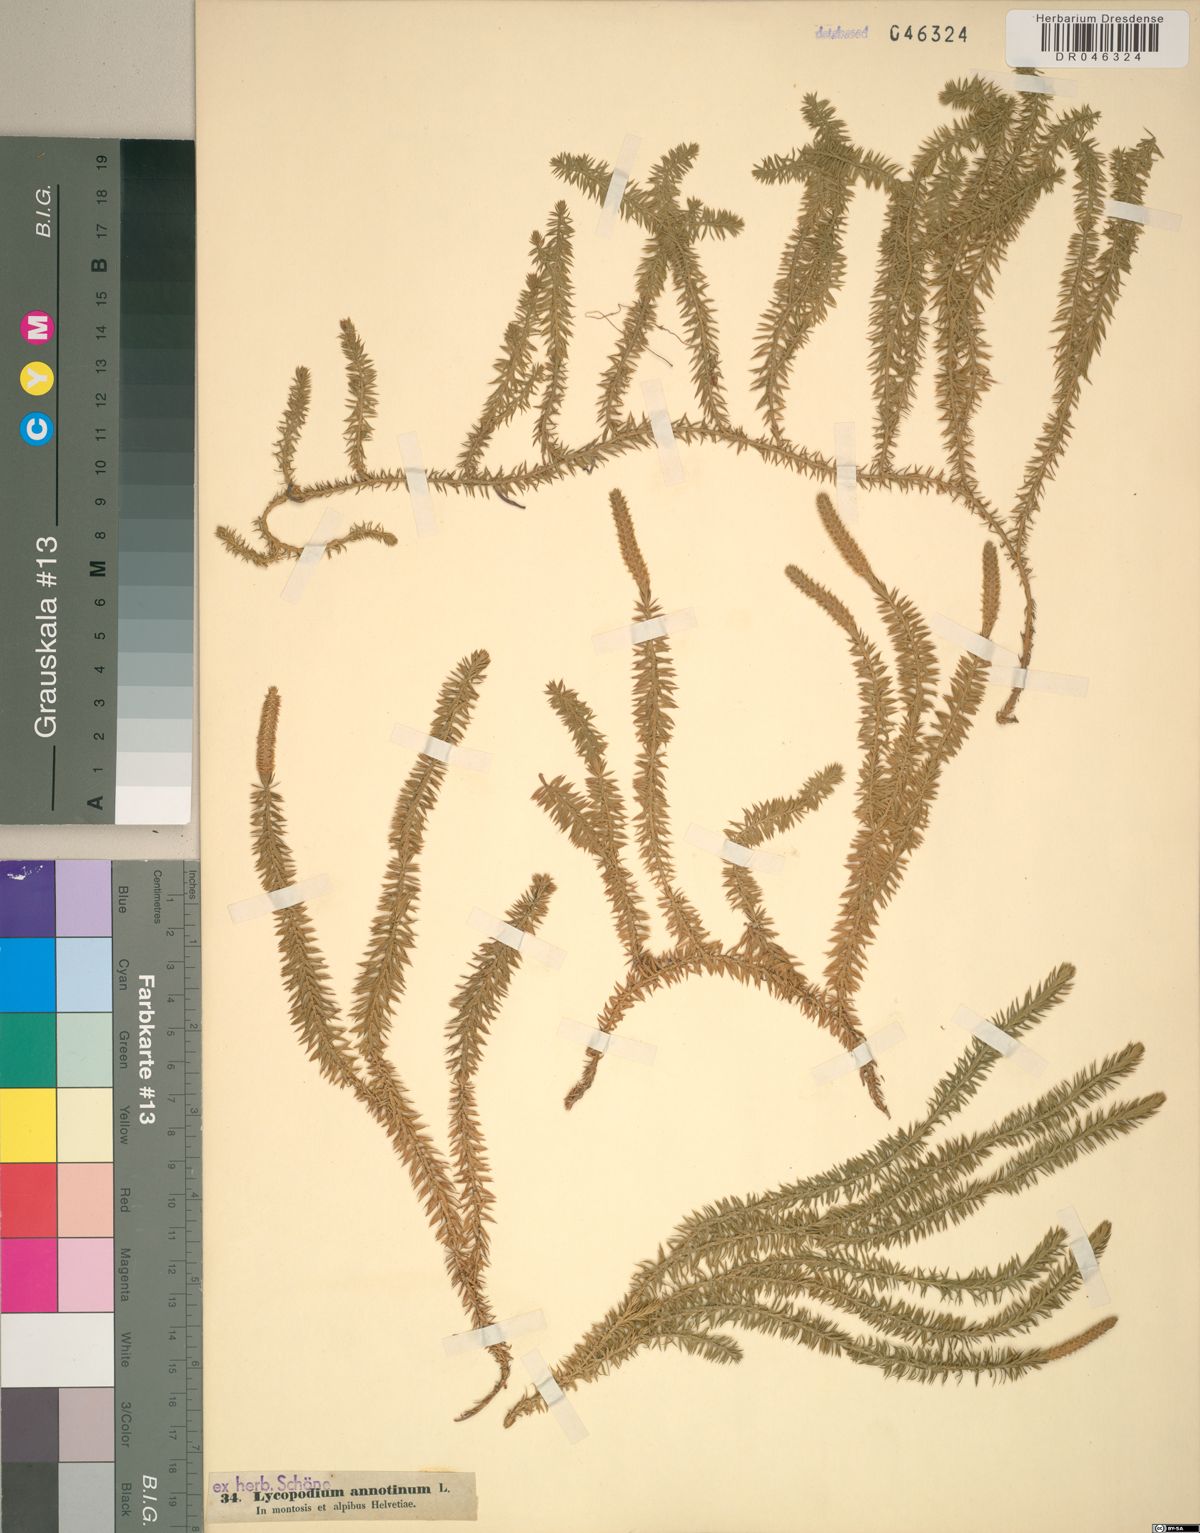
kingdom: Plantae
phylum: Tracheophyta
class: Lycopodiopsida
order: Lycopodiales
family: Lycopodiaceae
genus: Spinulum
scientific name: Spinulum annotinum
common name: Interrupted club-moss
